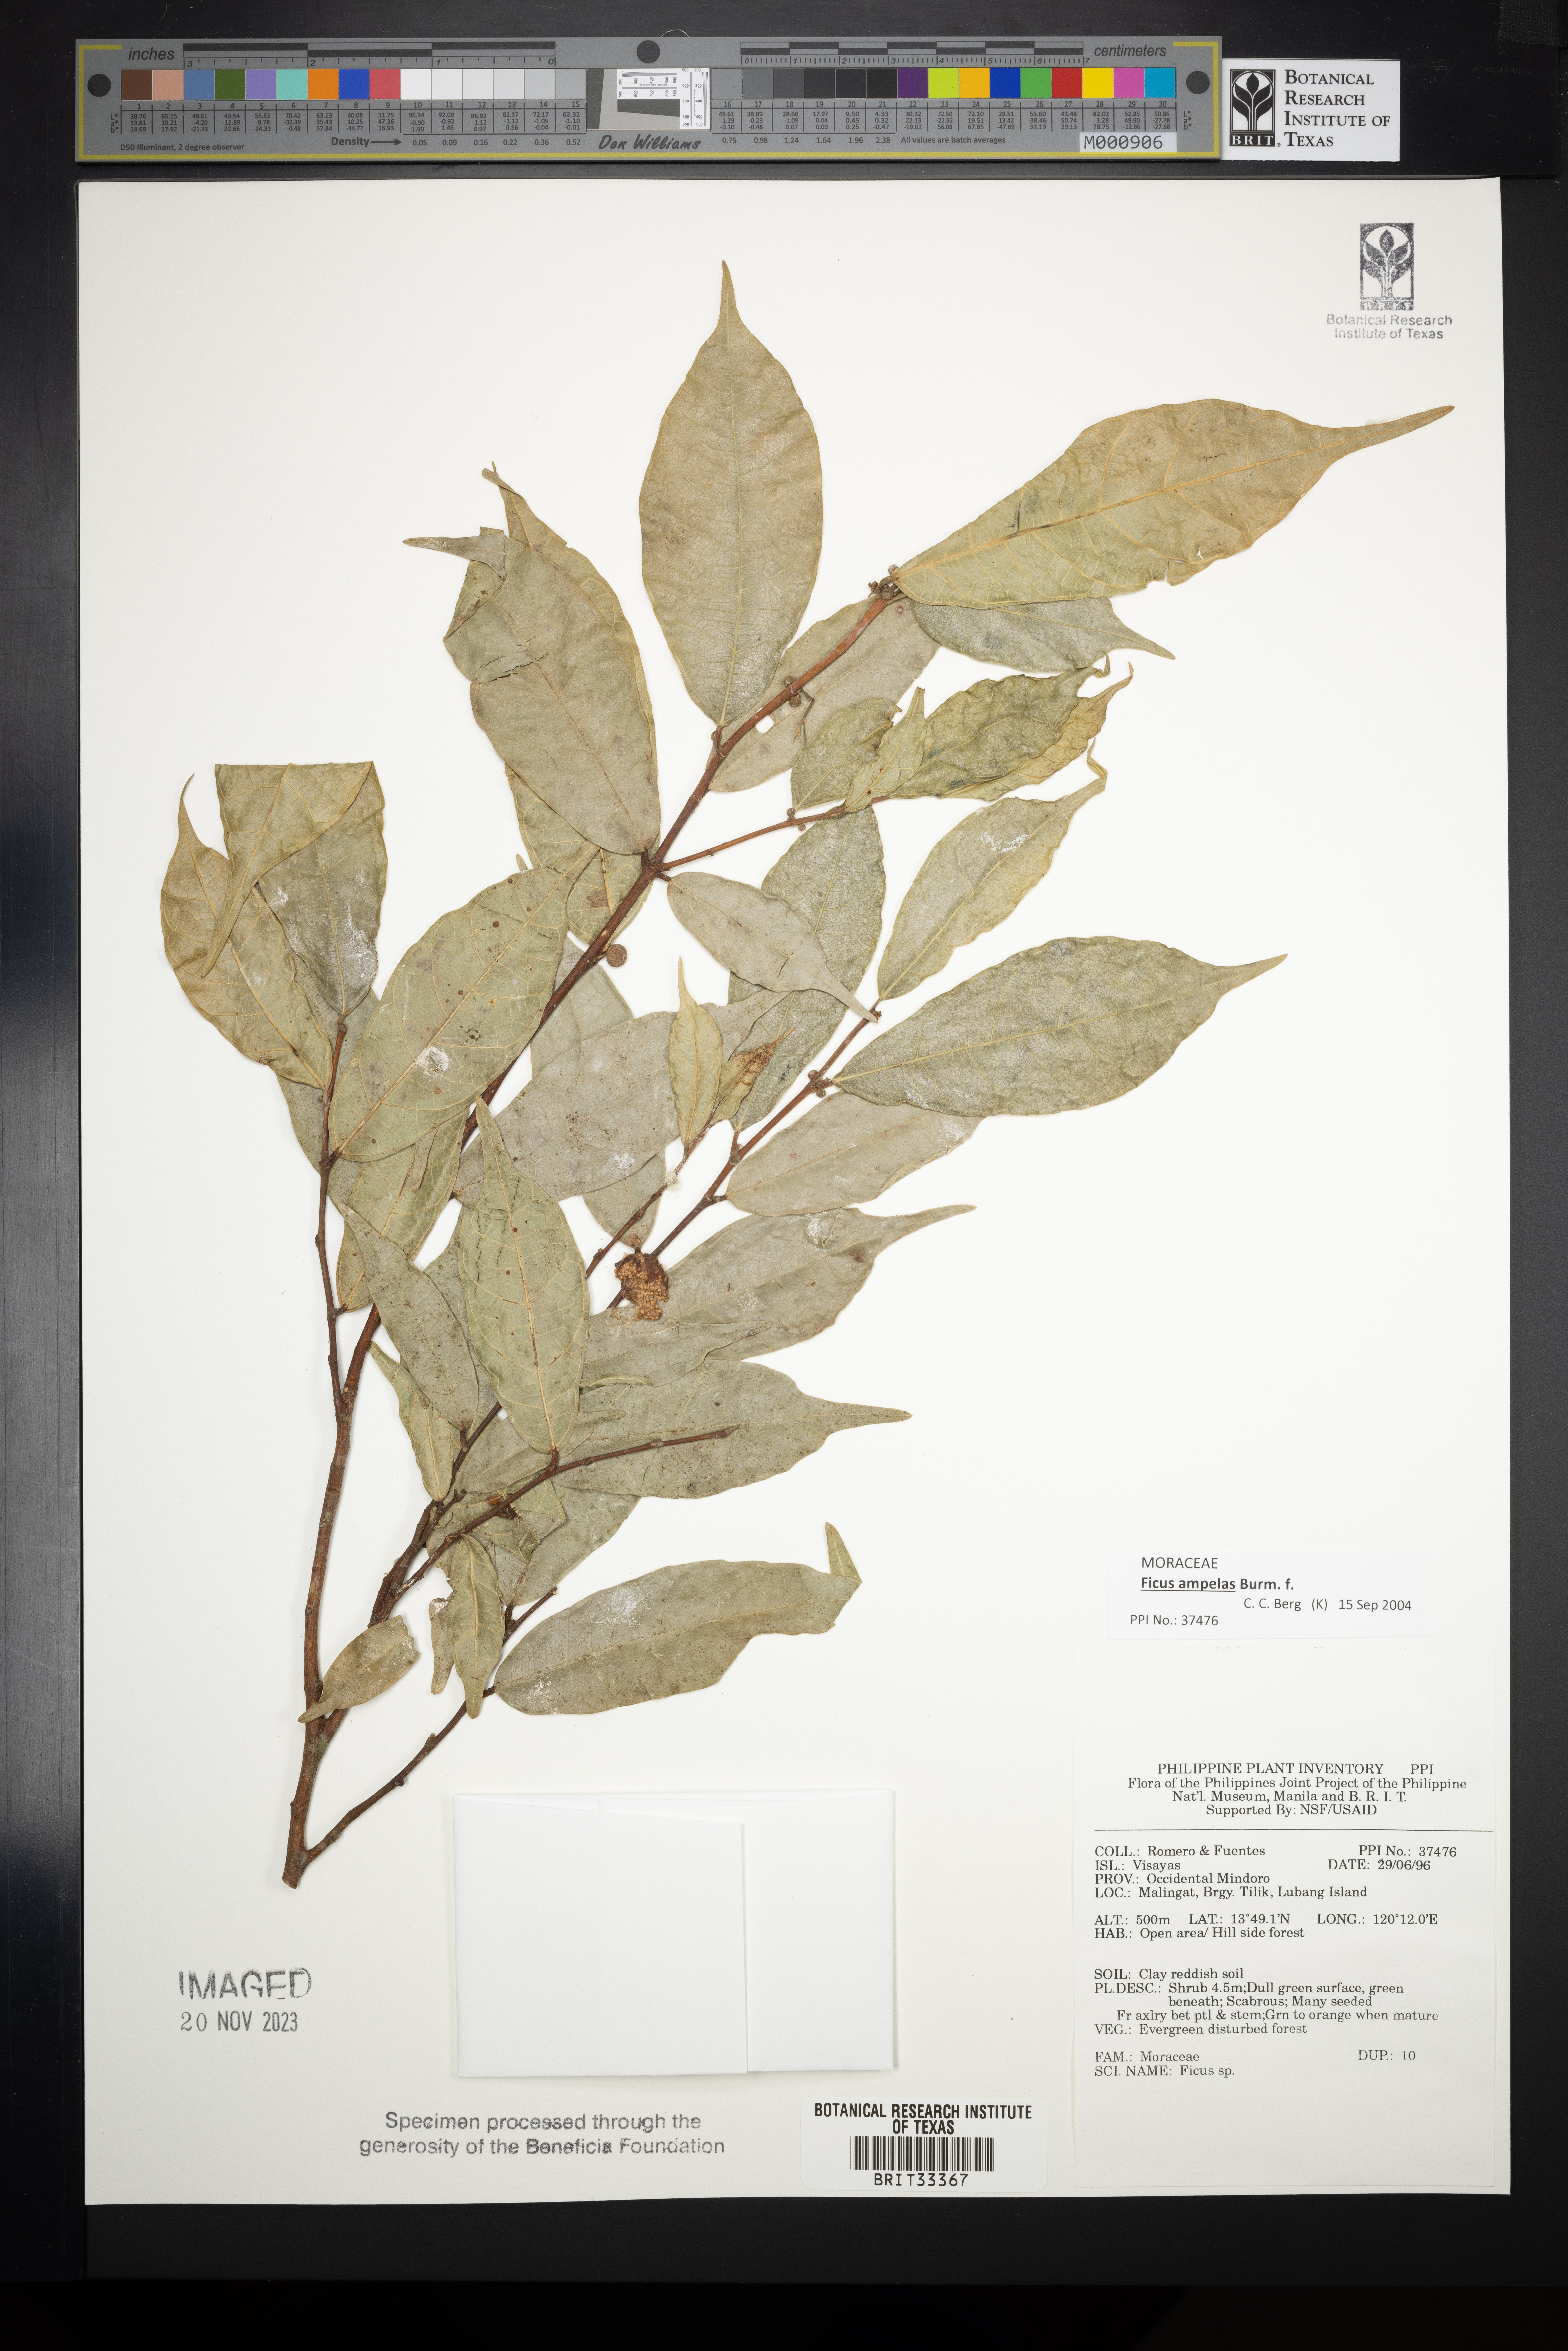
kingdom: Plantae
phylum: Tracheophyta
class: Magnoliopsida
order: Rosales
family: Moraceae
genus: Ficus
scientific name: Ficus
